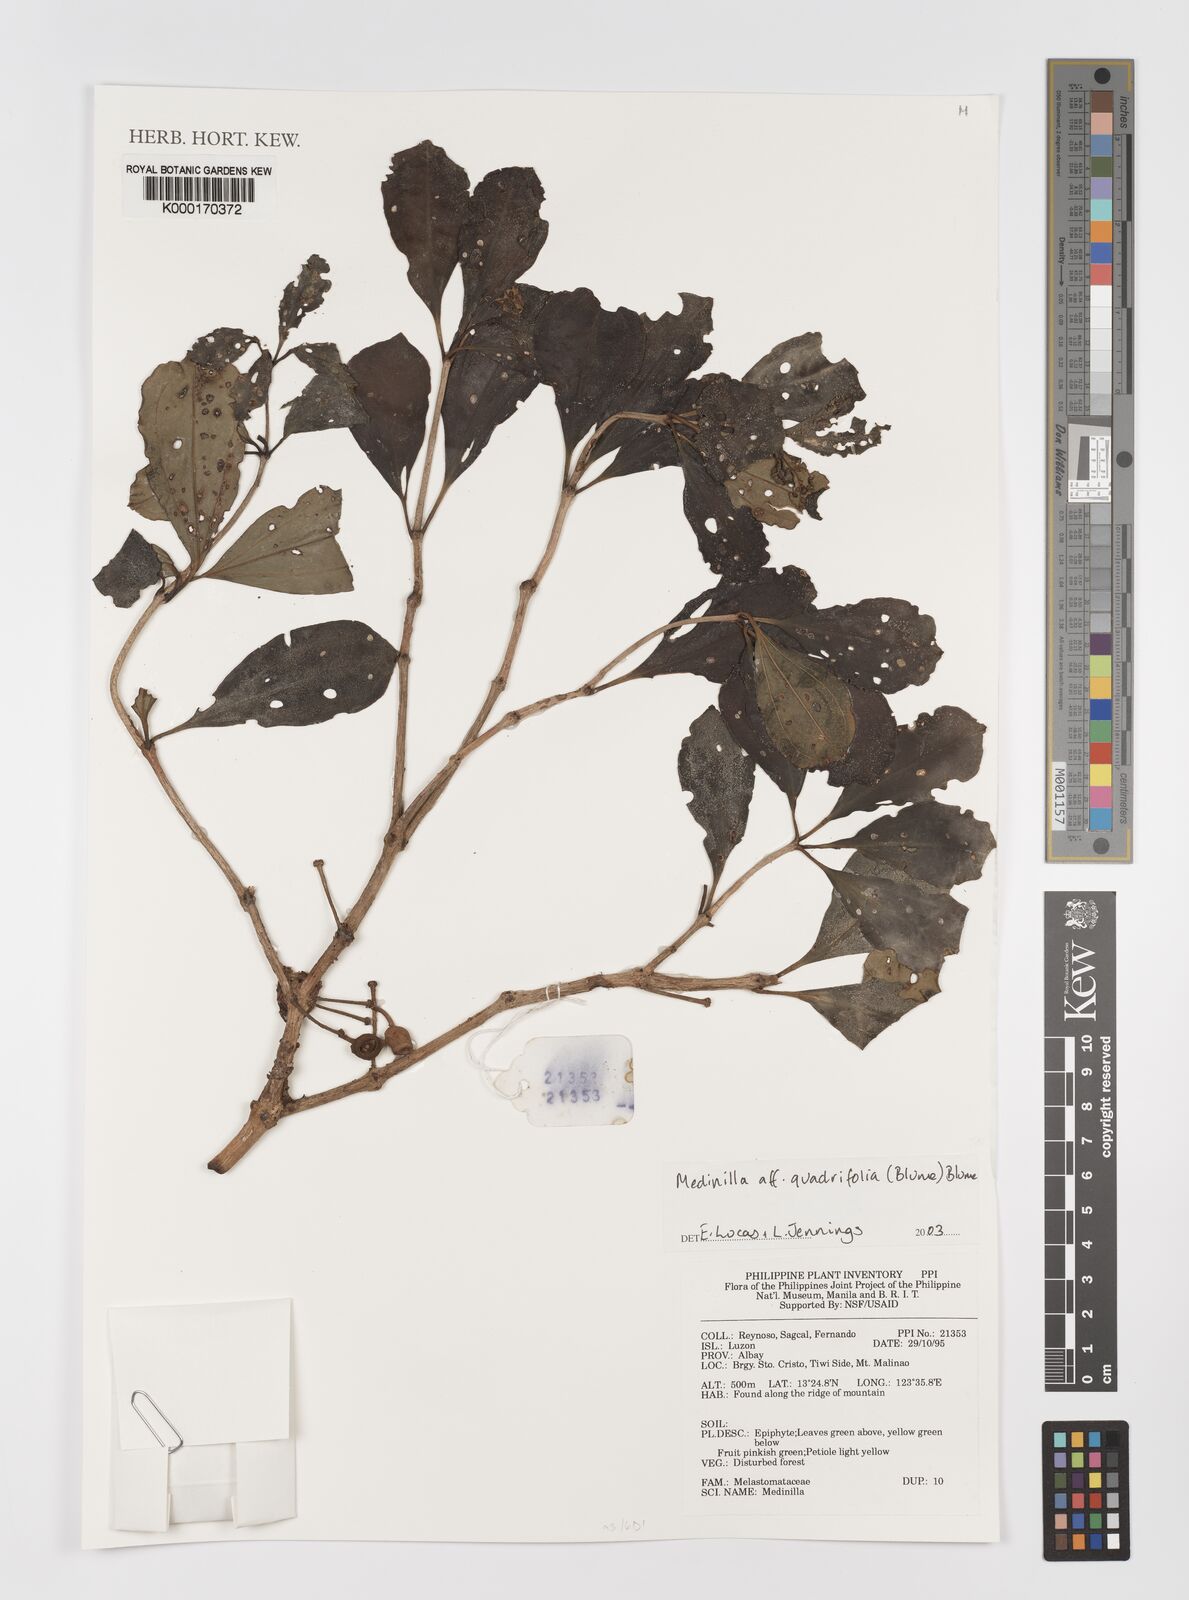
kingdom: Plantae
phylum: Tracheophyta
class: Magnoliopsida
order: Myrtales
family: Melastomataceae
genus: Medinilla
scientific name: Medinilla quadrifolia
